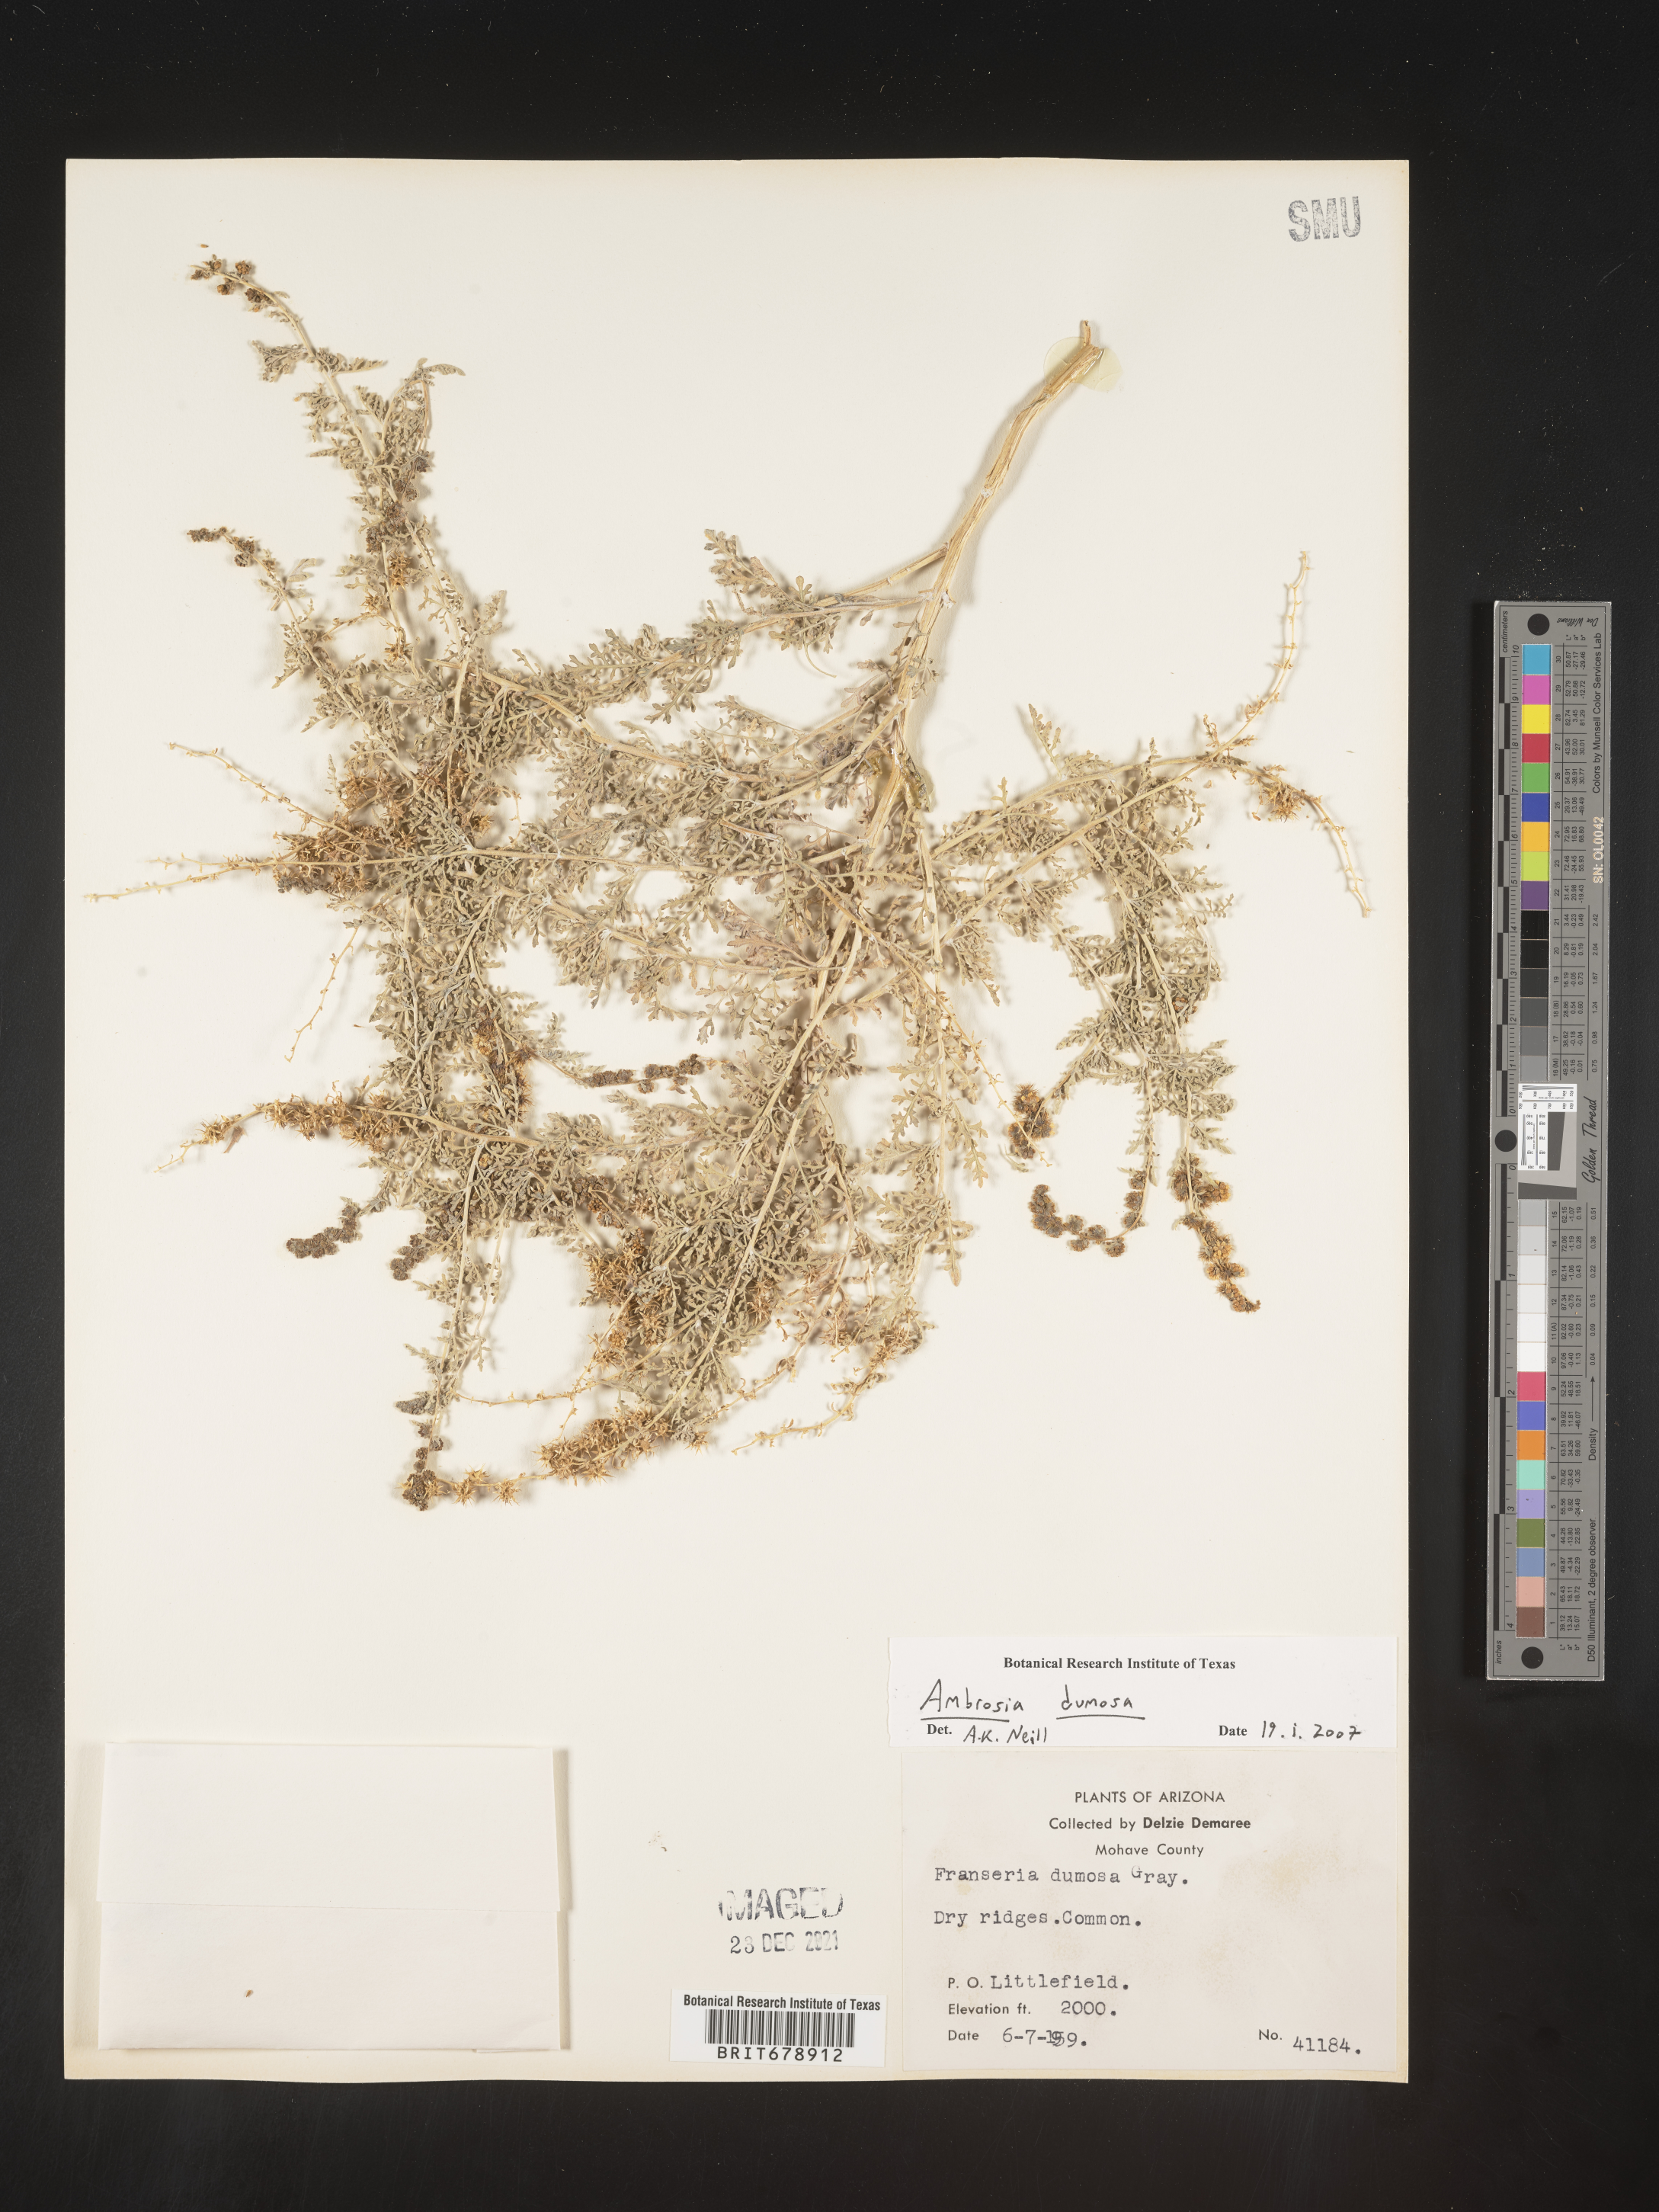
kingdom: Plantae
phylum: Tracheophyta
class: Magnoliopsida
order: Asterales
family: Asteraceae
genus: Ambrosia
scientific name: Ambrosia dumosa
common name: Bur-sage
